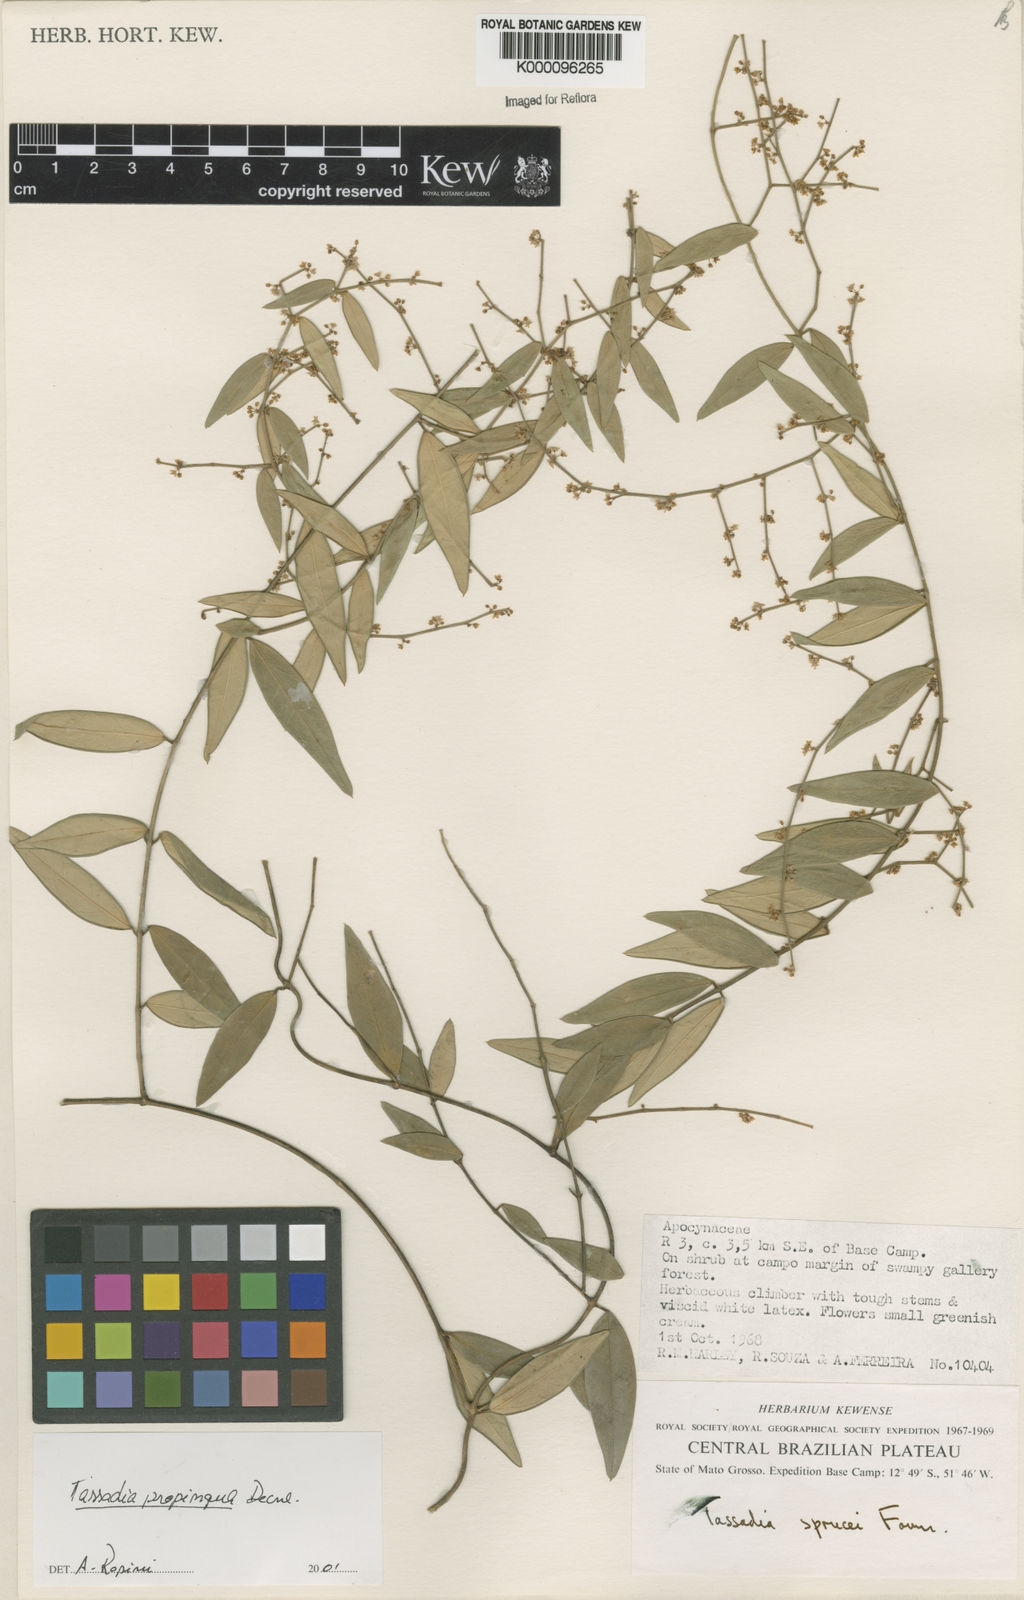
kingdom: Plantae
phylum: Tracheophyta
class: Magnoliopsida
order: Gentianales
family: Apocynaceae
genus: Tassadia
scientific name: Tassadia propinqua
